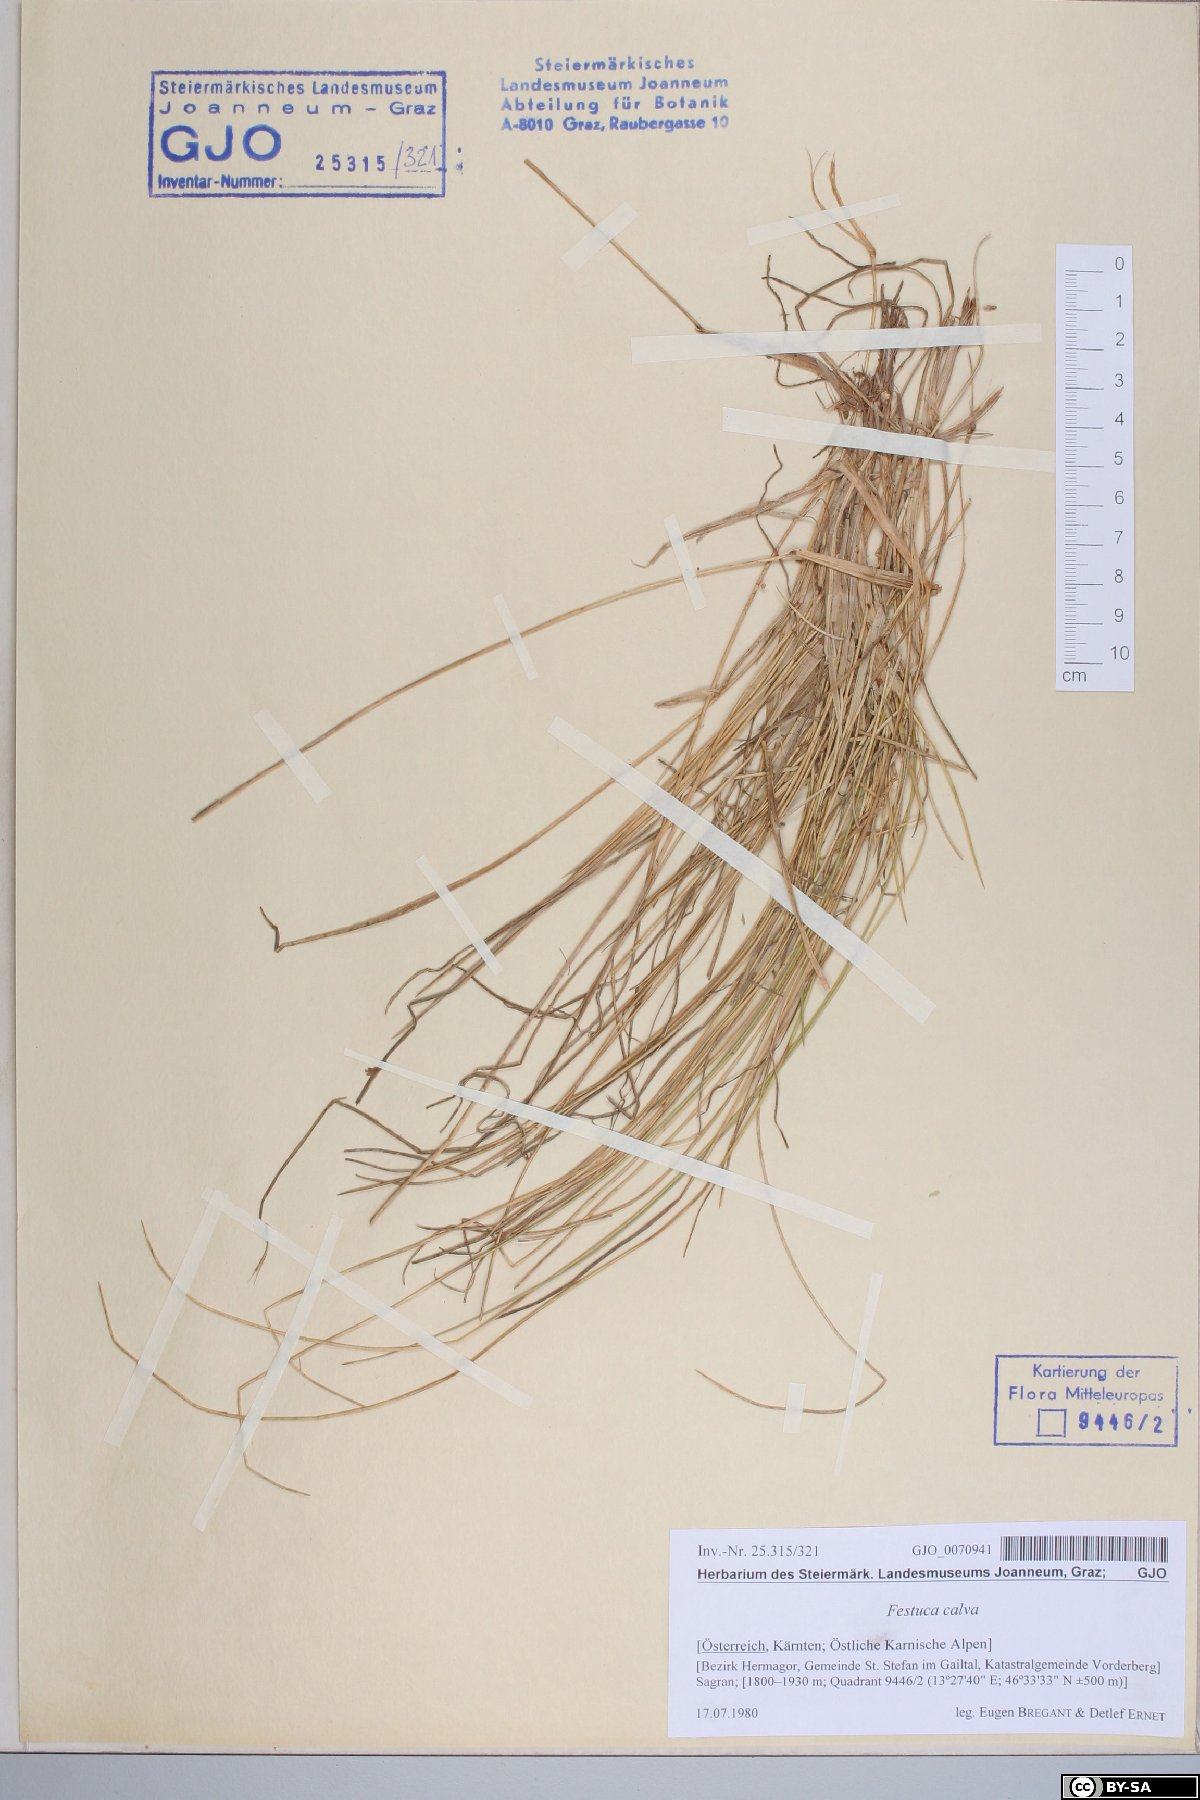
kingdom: Plantae
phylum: Tracheophyta
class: Liliopsida
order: Poales
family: Poaceae
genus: Festuca
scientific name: Festuca calva
